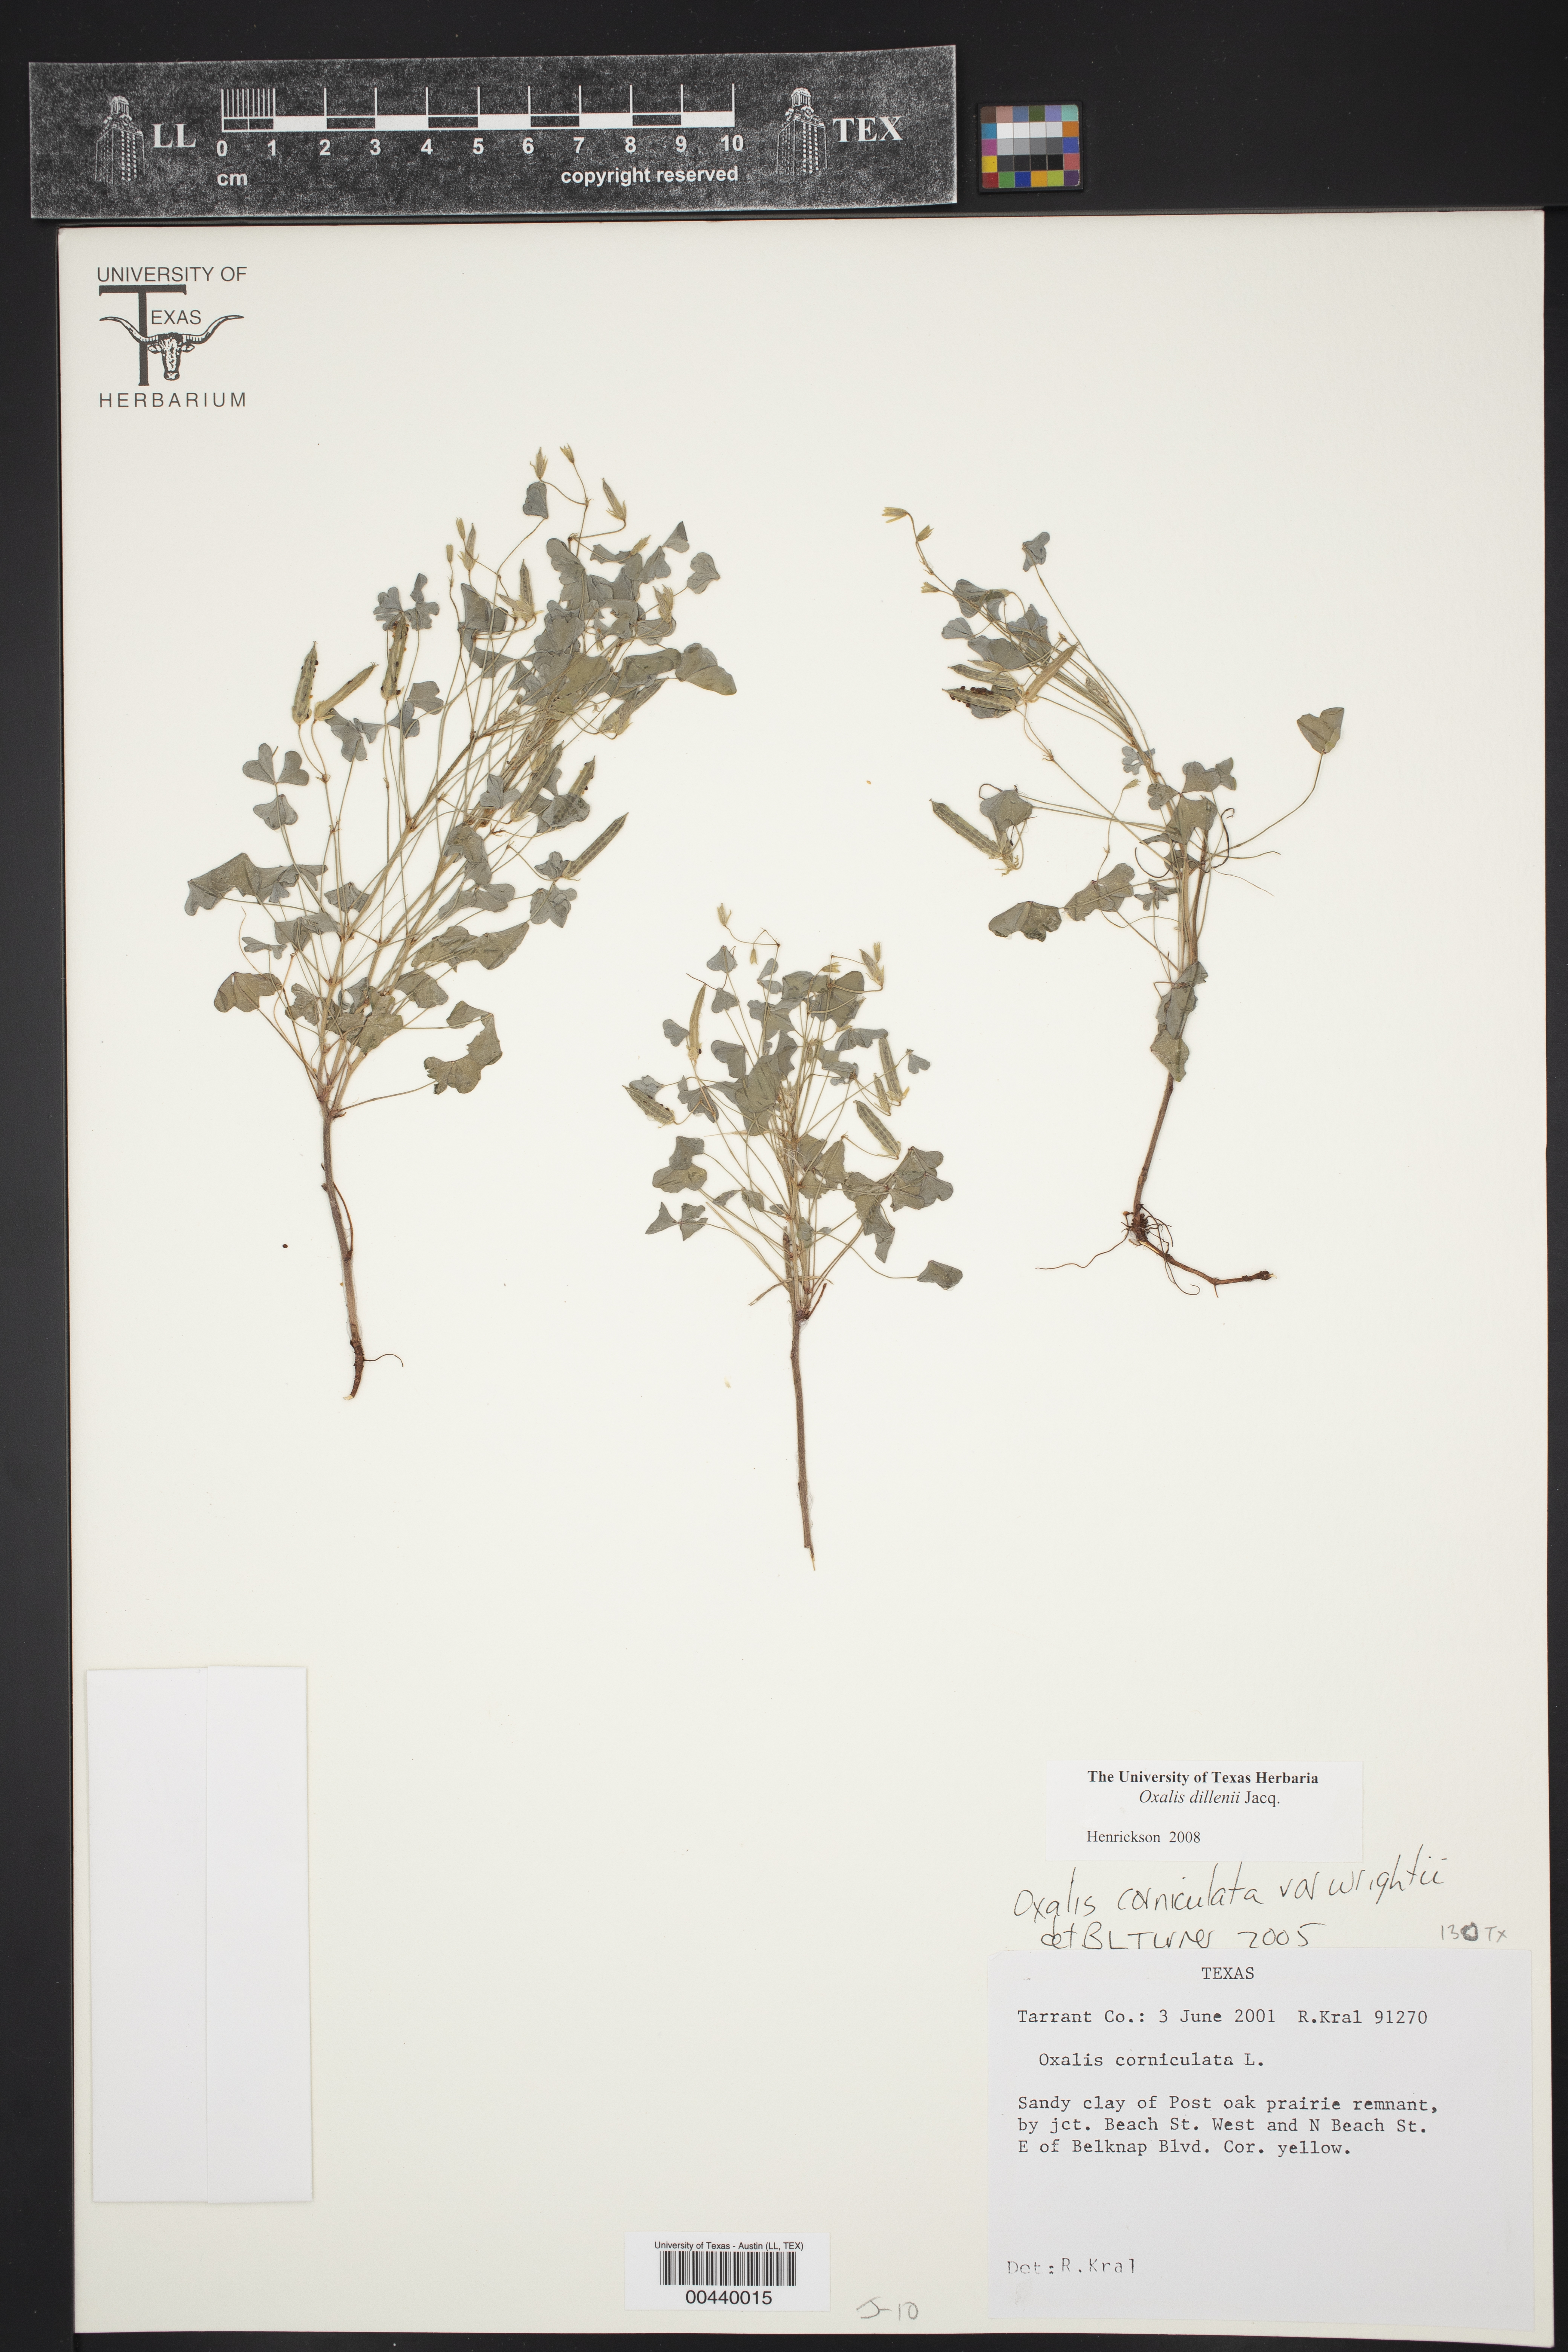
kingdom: Plantae
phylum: Tracheophyta
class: Magnoliopsida
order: Oxalidales
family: Oxalidaceae
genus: Oxalis
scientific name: Oxalis dillenii
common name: Sussex yellow-sorrel
